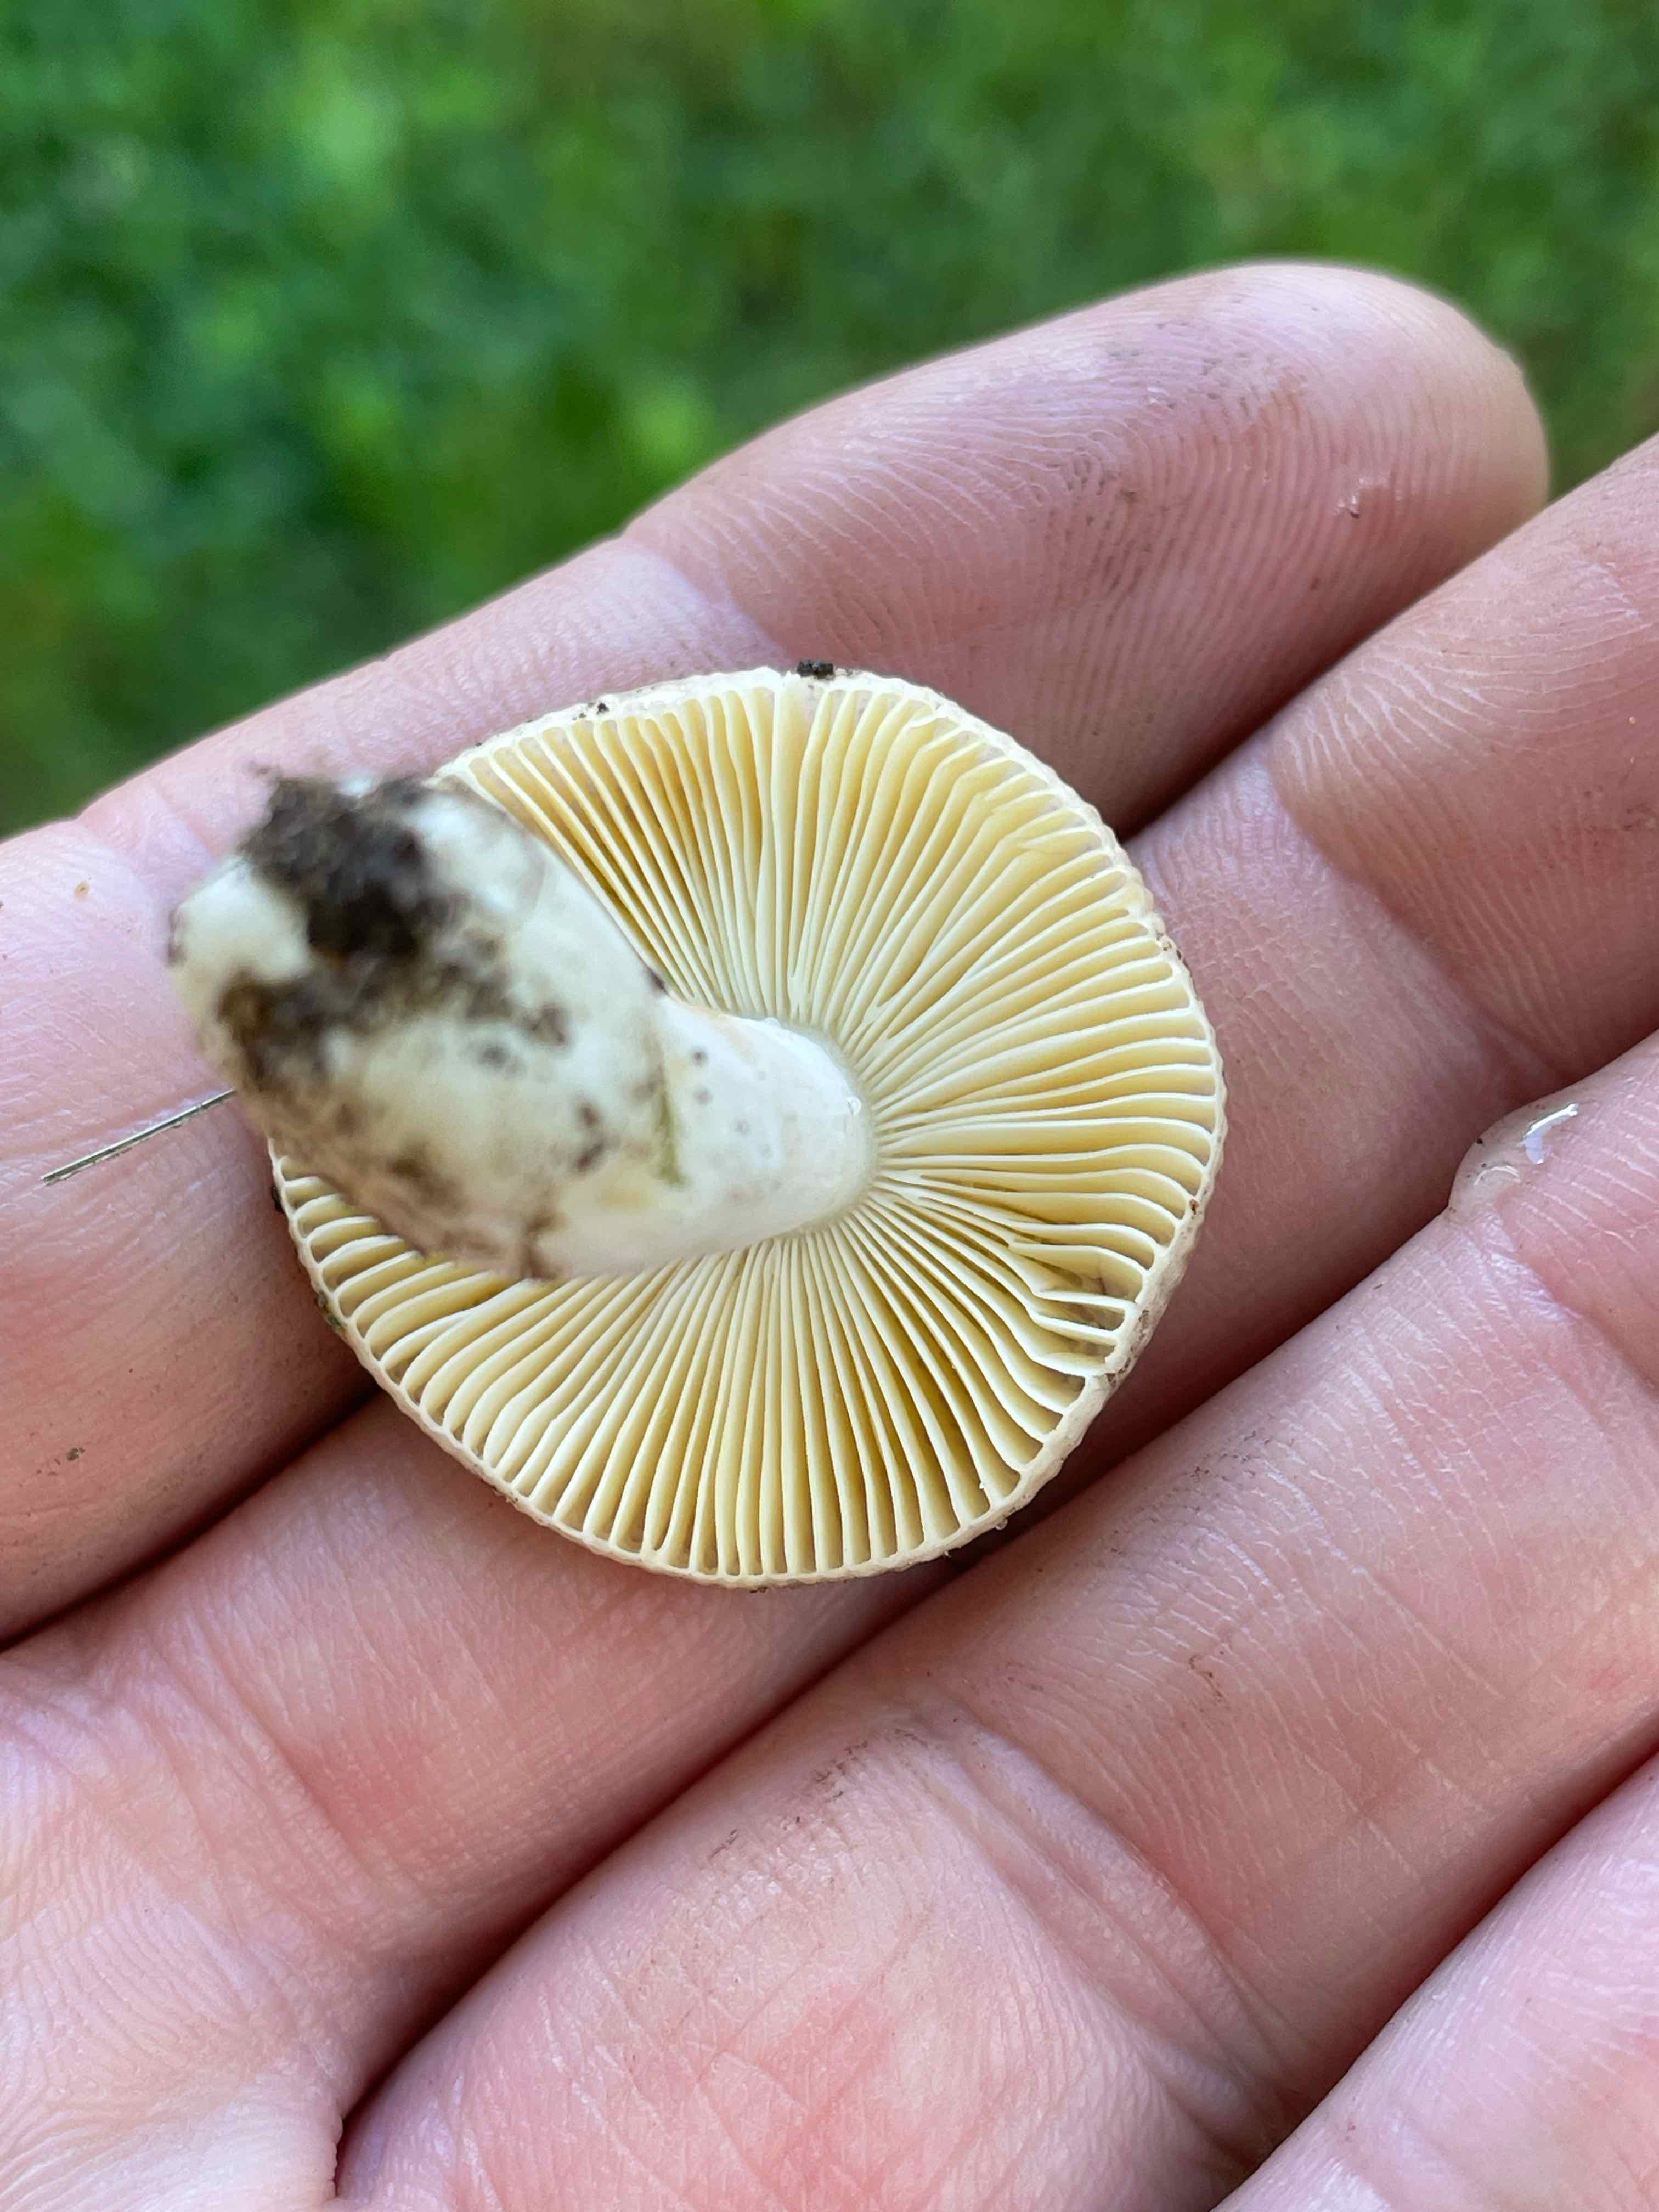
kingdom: Fungi
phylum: Basidiomycota
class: Agaricomycetes
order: Russulales
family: Russulaceae
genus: Russula
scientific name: Russula
